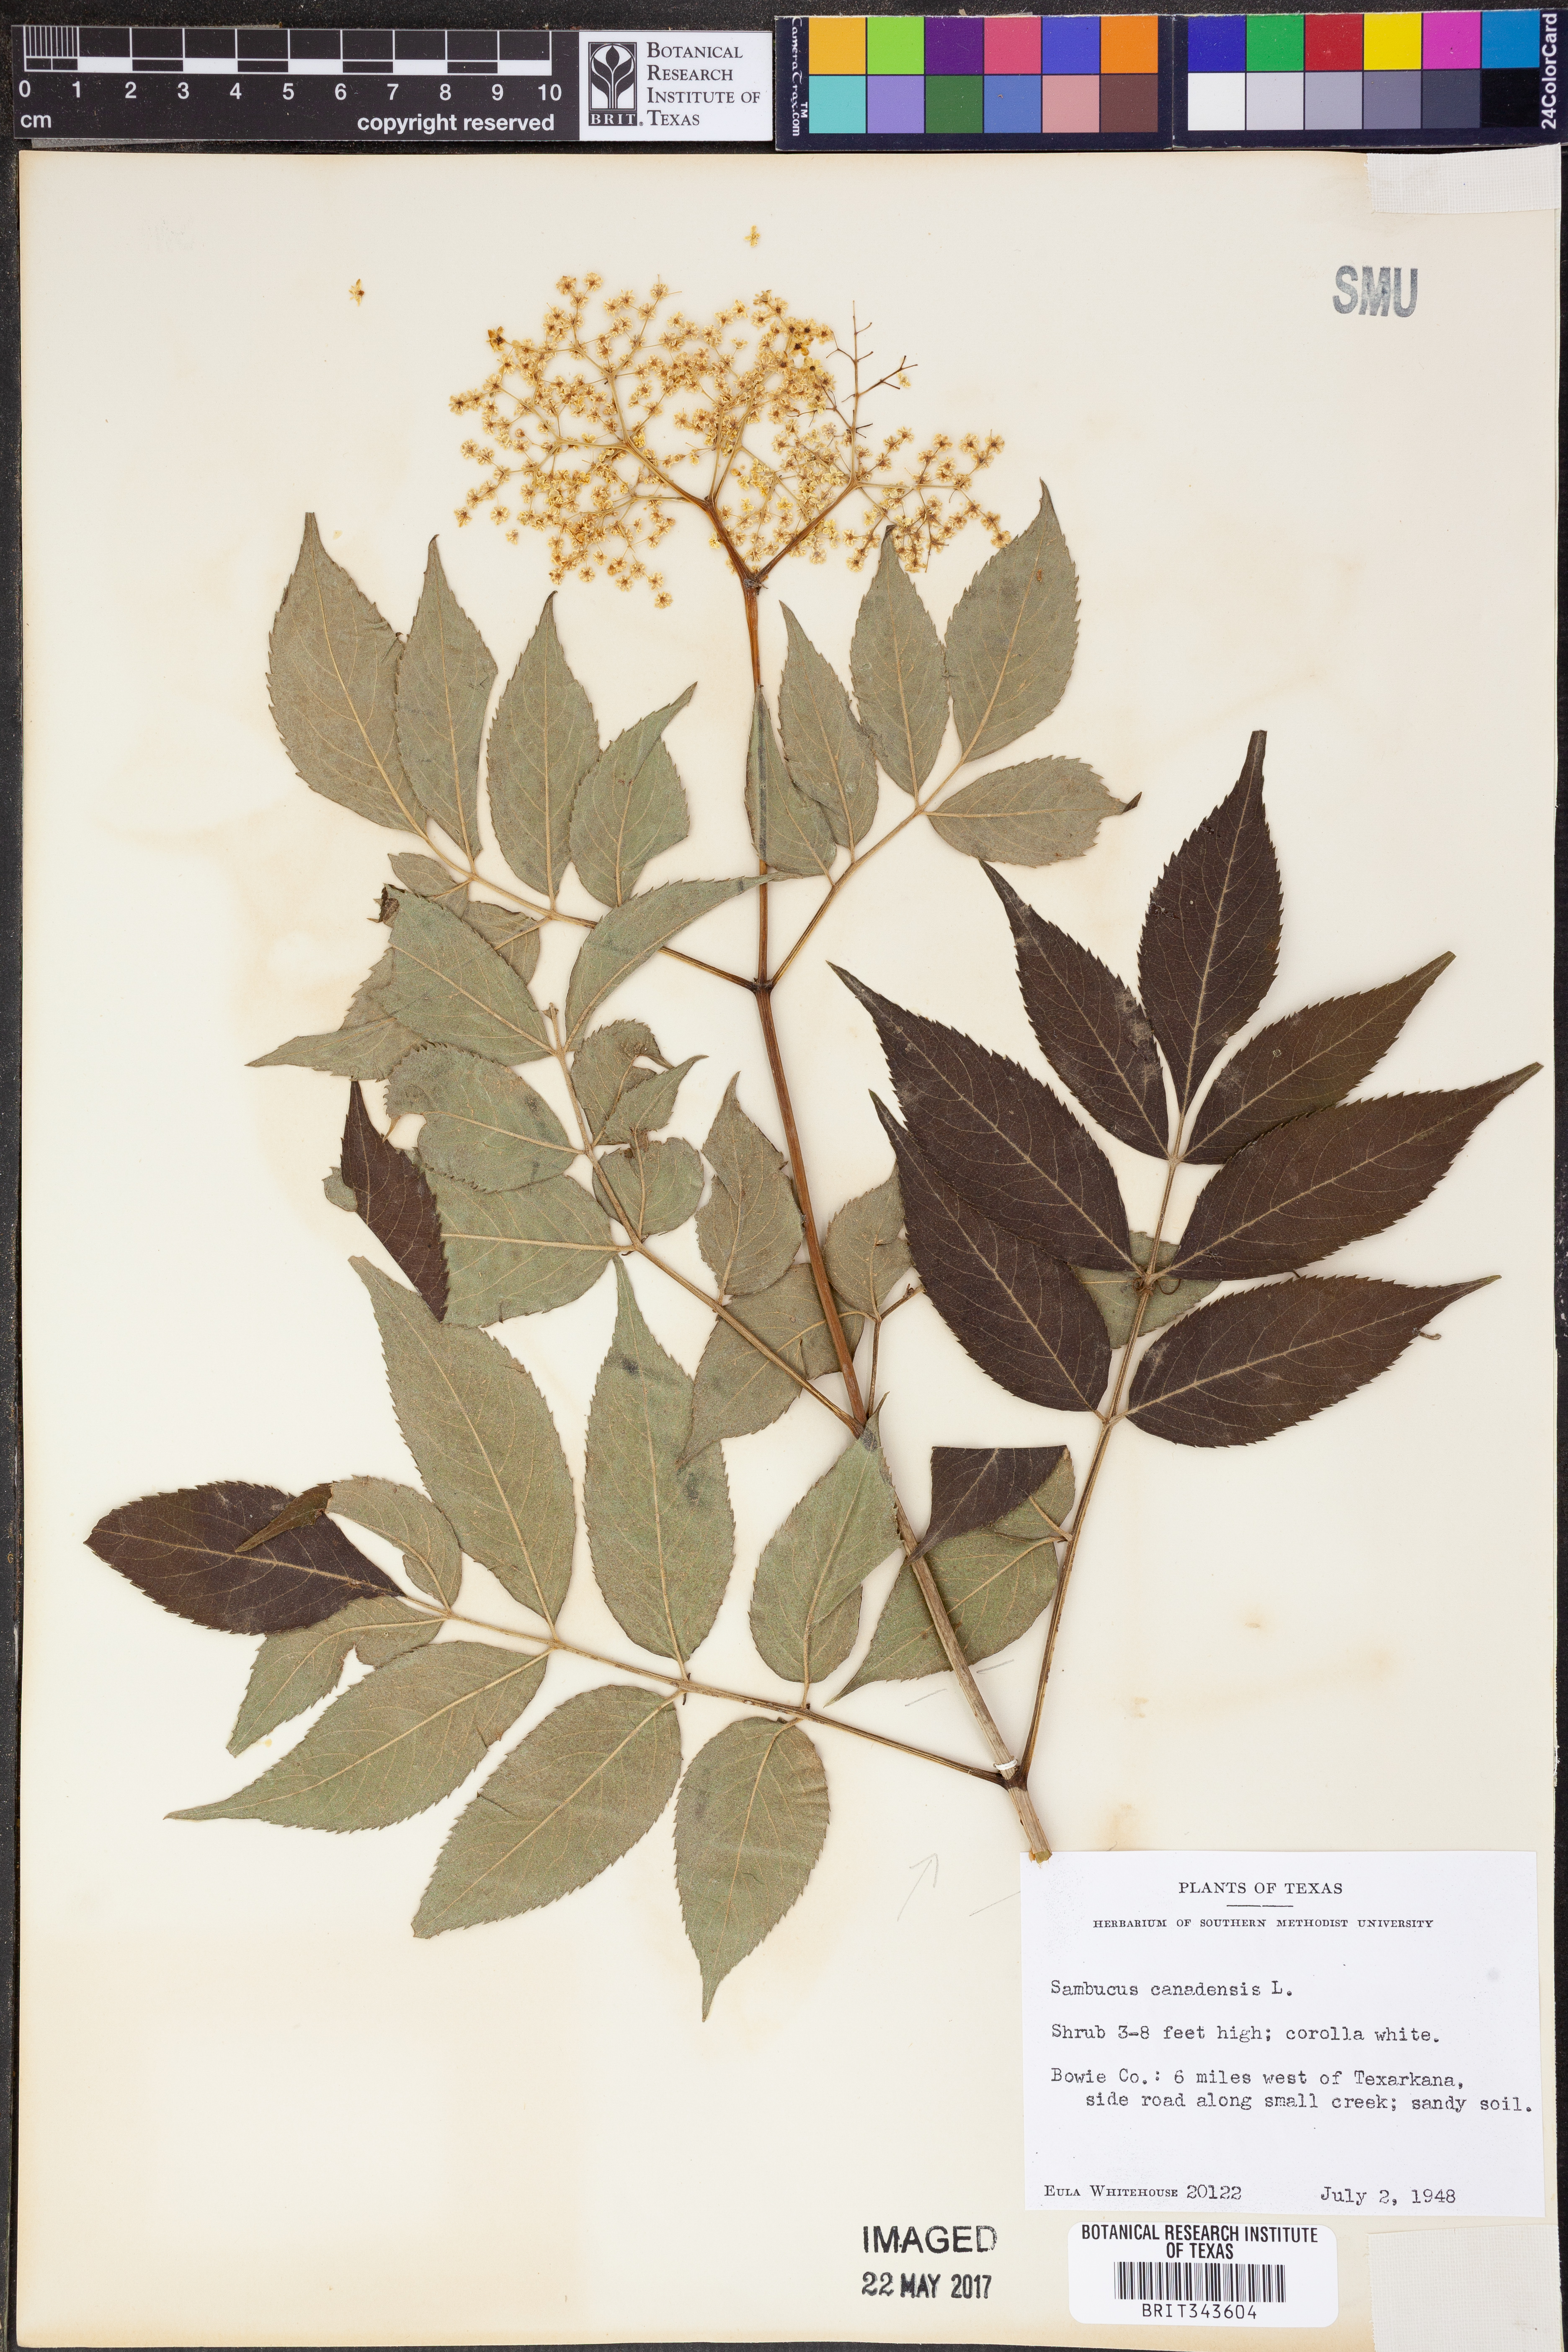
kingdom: Plantae
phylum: Tracheophyta
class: Magnoliopsida
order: Dipsacales
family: Viburnaceae
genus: Sambucus
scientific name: Sambucus canadensis
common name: American elder
